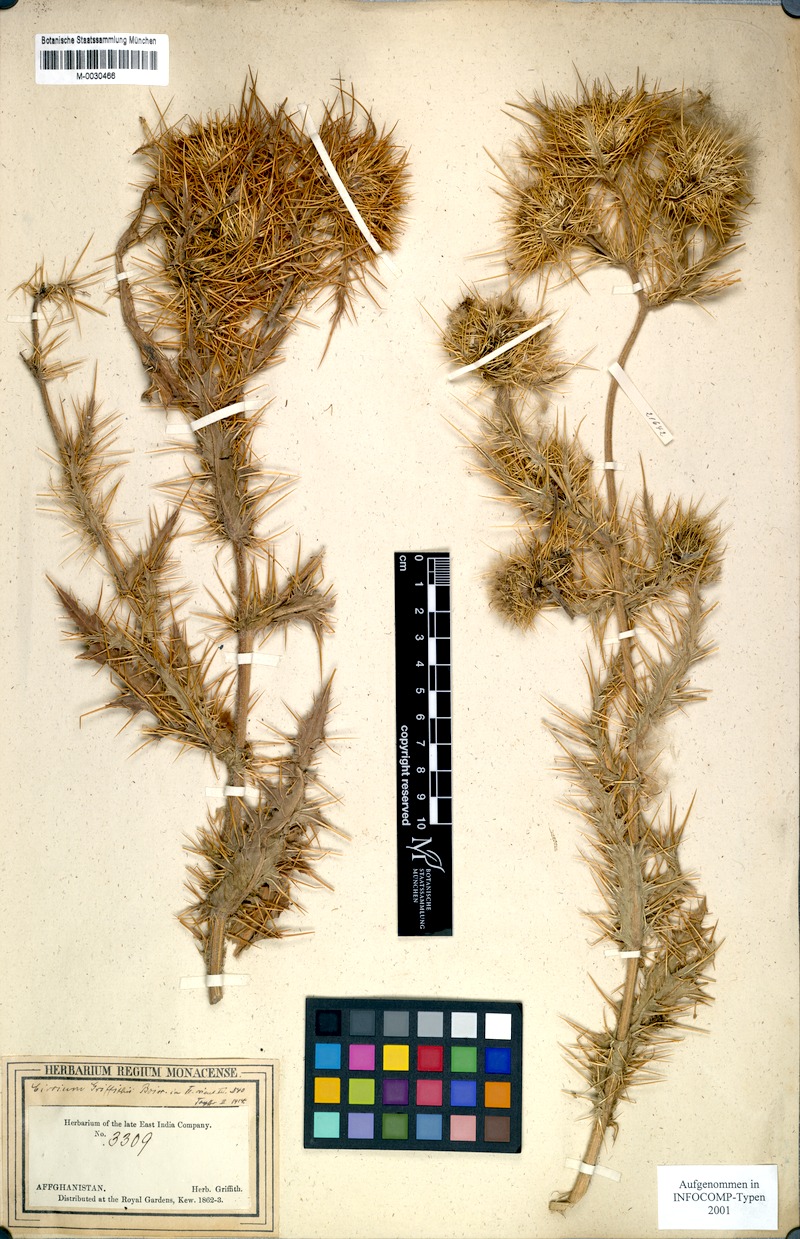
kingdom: Plantae
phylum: Tracheophyta
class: Magnoliopsida
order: Asterales
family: Asteraceae
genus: Lophiolepis
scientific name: Lophiolepis griffithii
